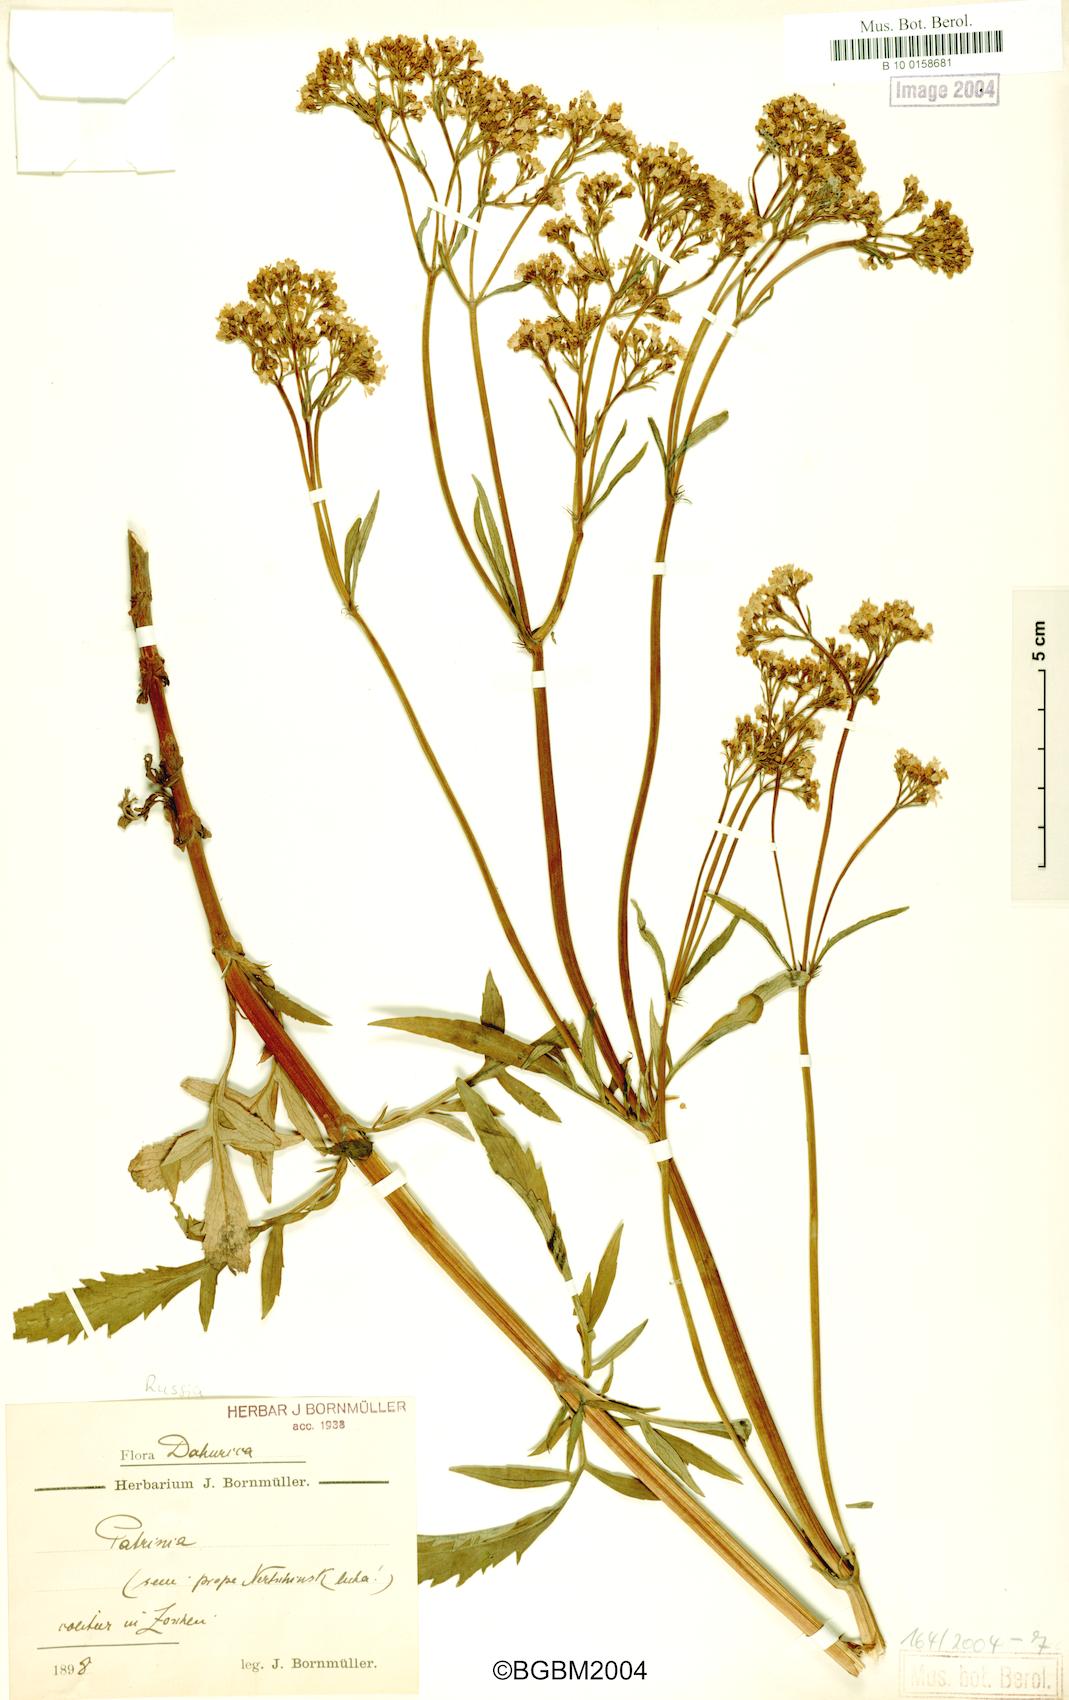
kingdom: Plantae
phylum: Tracheophyta
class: Magnoliopsida
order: Dipsacales
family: Caprifoliaceae
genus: Patrinia
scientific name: Patrinia rupestris
